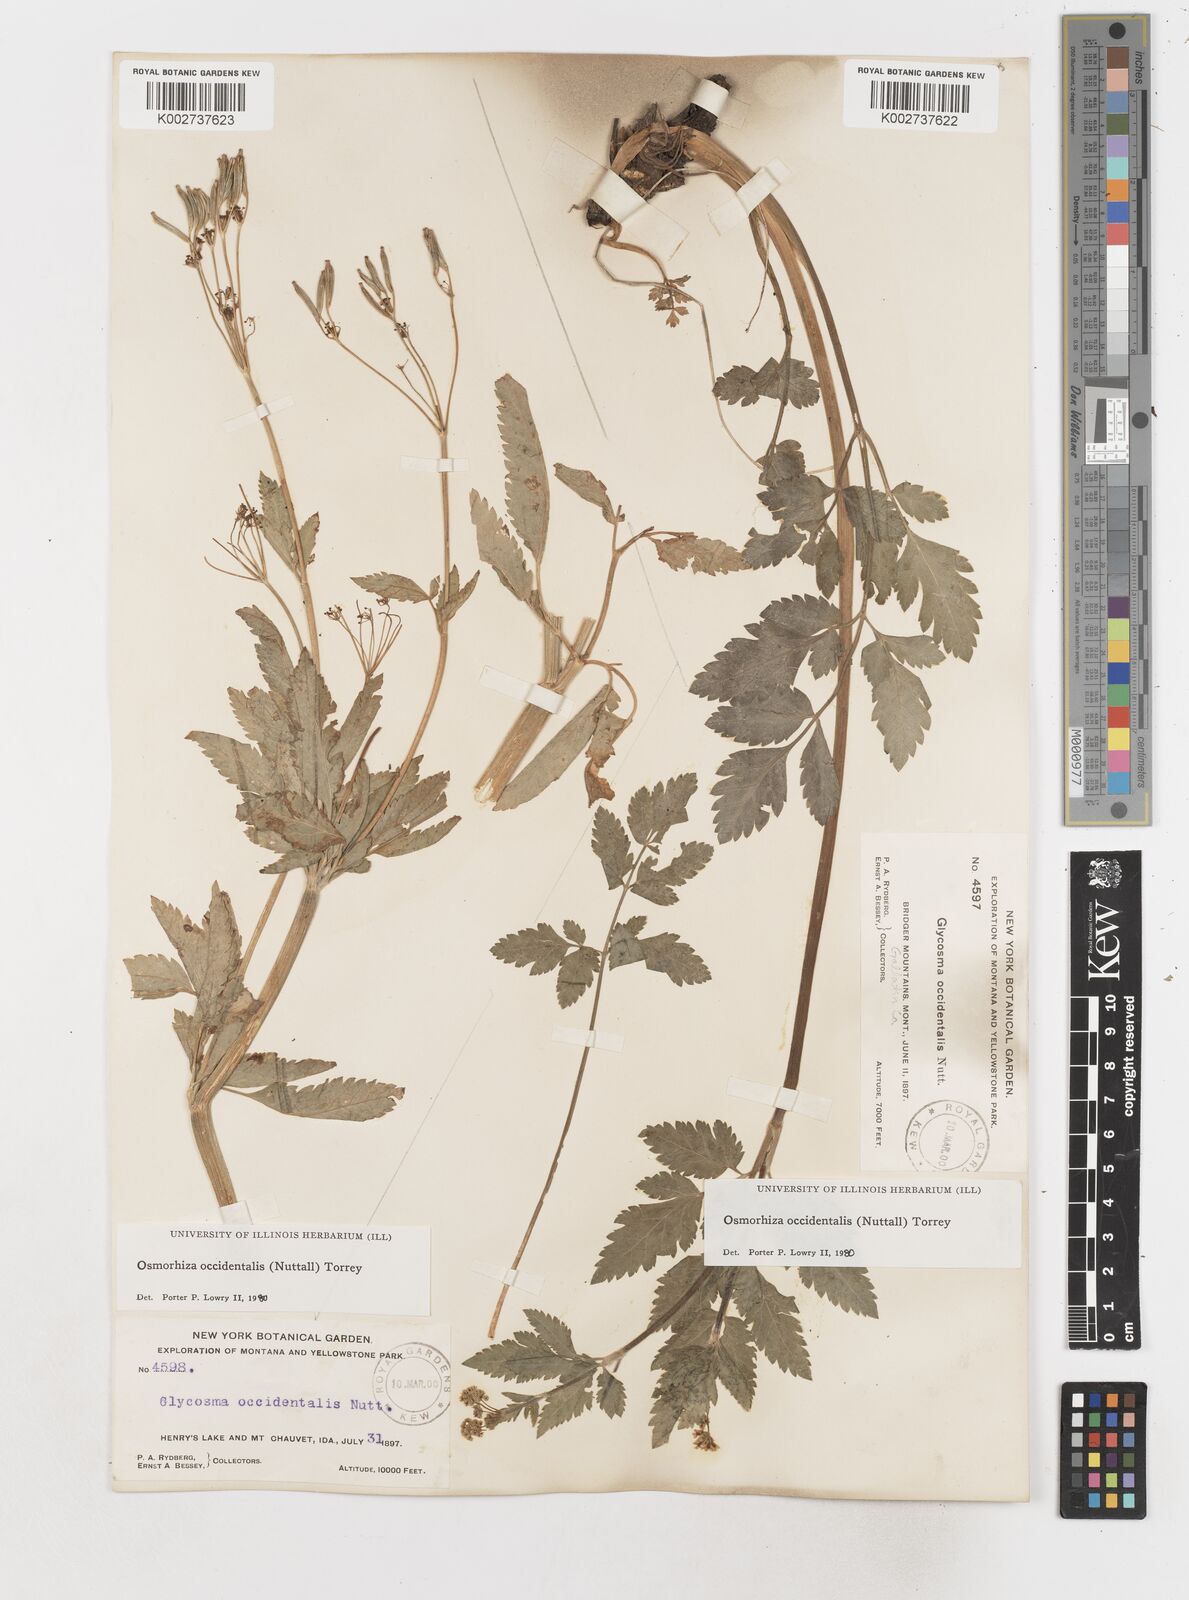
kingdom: Plantae
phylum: Tracheophyta
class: Magnoliopsida
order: Apiales
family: Apiaceae
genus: Osmorhiza
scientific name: Osmorhiza occidentalis
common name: Western sweet cicely
